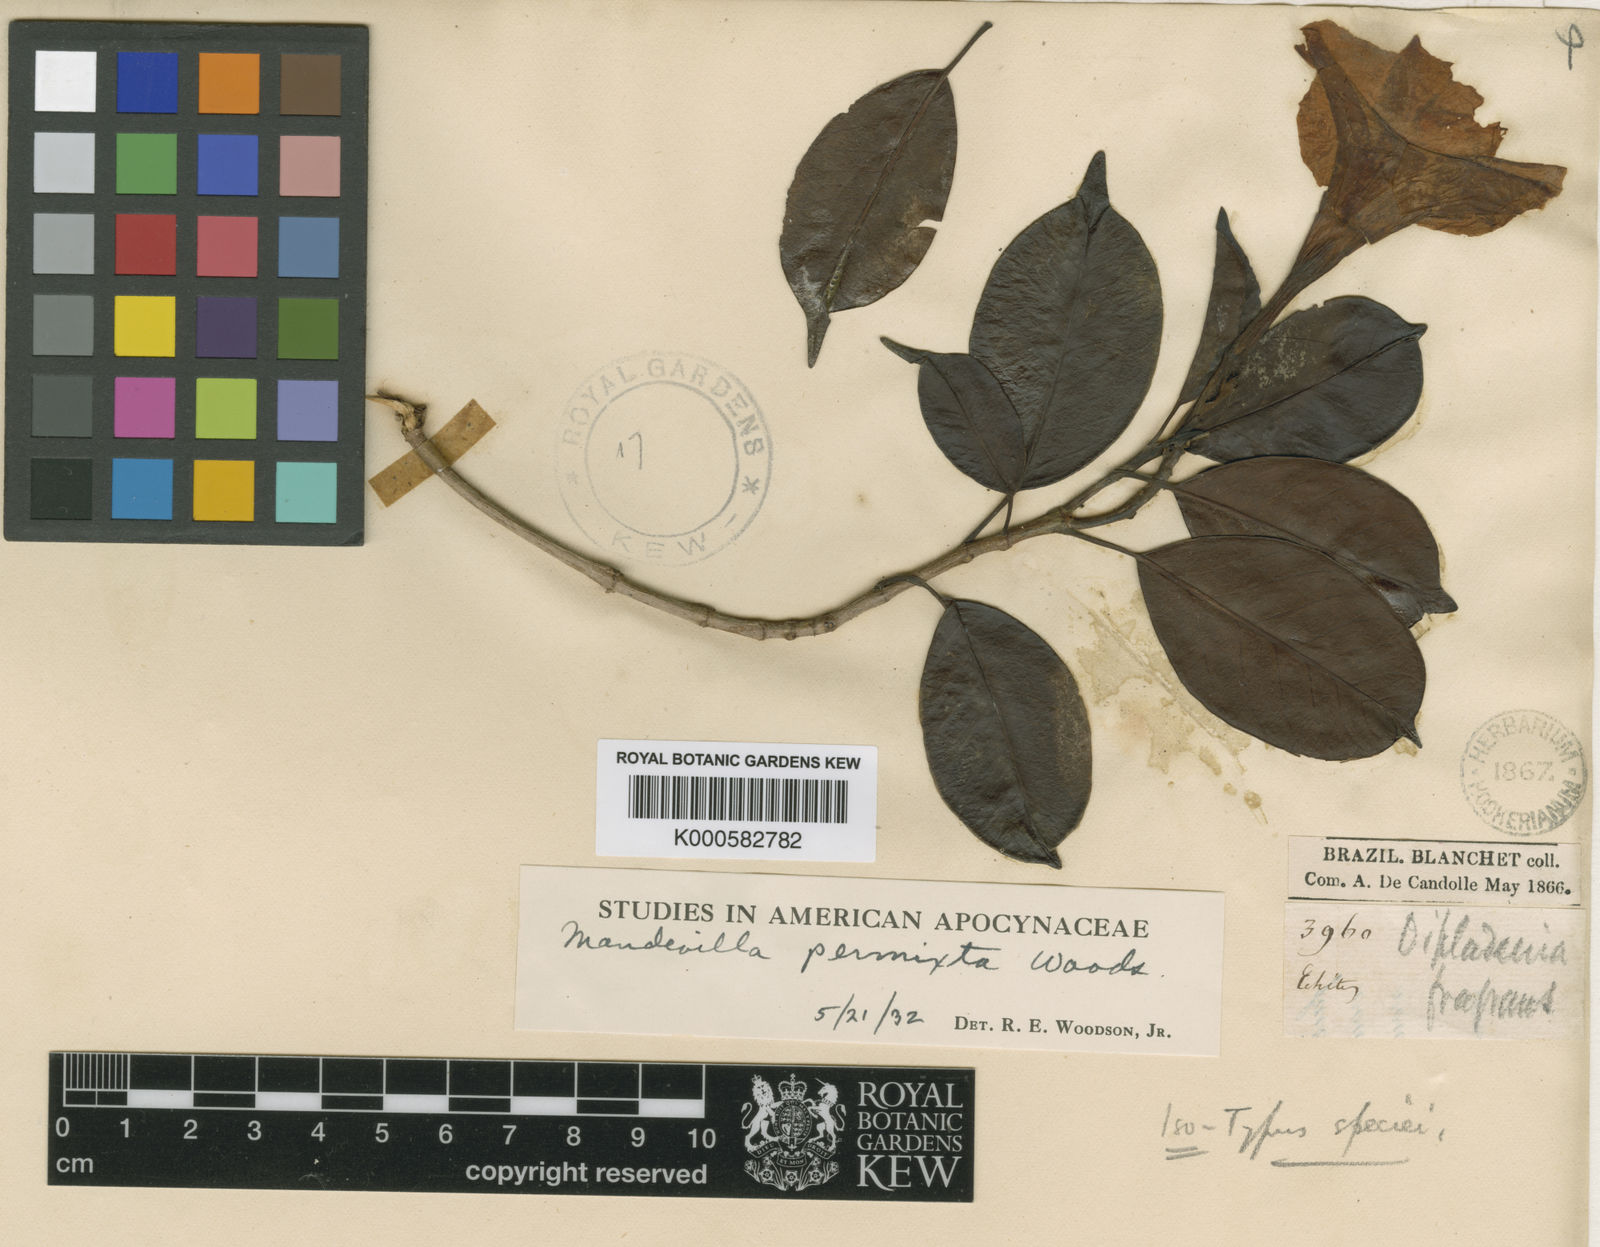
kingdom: Plantae
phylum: Tracheophyta
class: Magnoliopsida
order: Gentianales
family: Apocynaceae
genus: Mandevilla
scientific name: Mandevilla boliviensis
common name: White dipladenia
